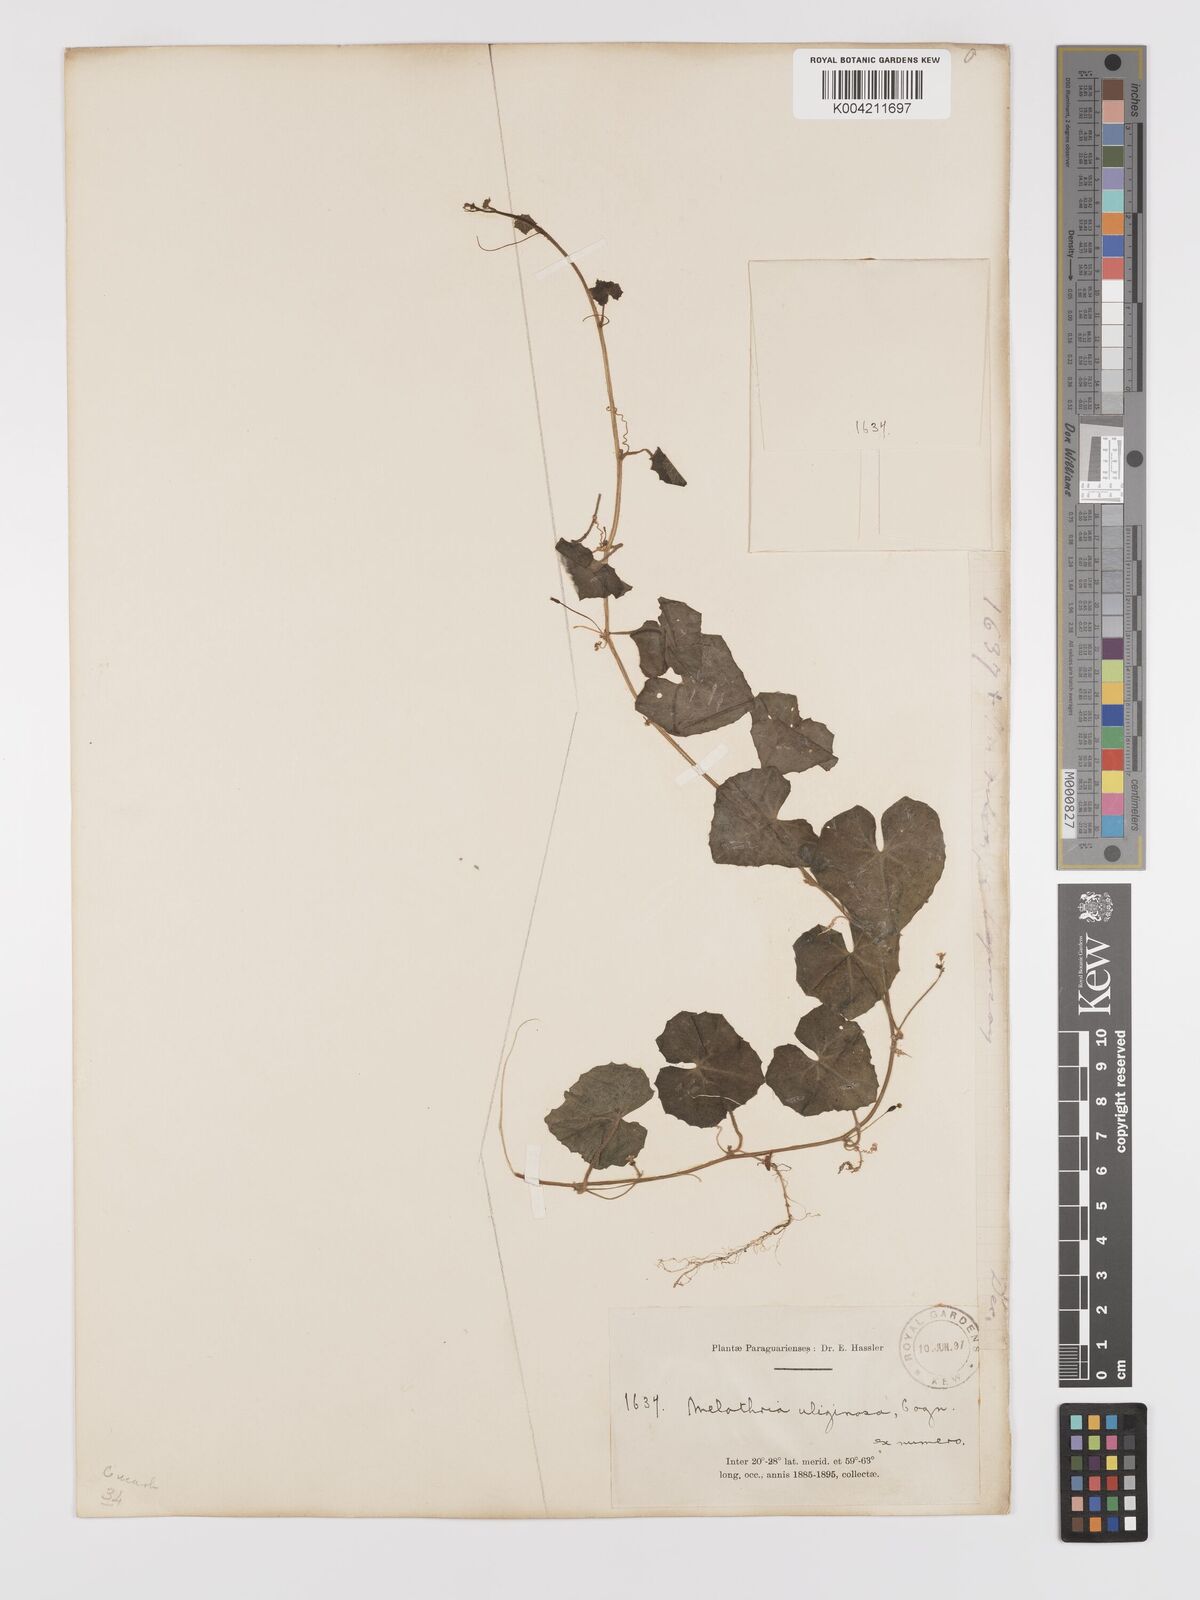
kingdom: Plantae
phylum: Tracheophyta
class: Magnoliopsida
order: Cucurbitales
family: Cucurbitaceae
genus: Melothria
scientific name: Melothria
